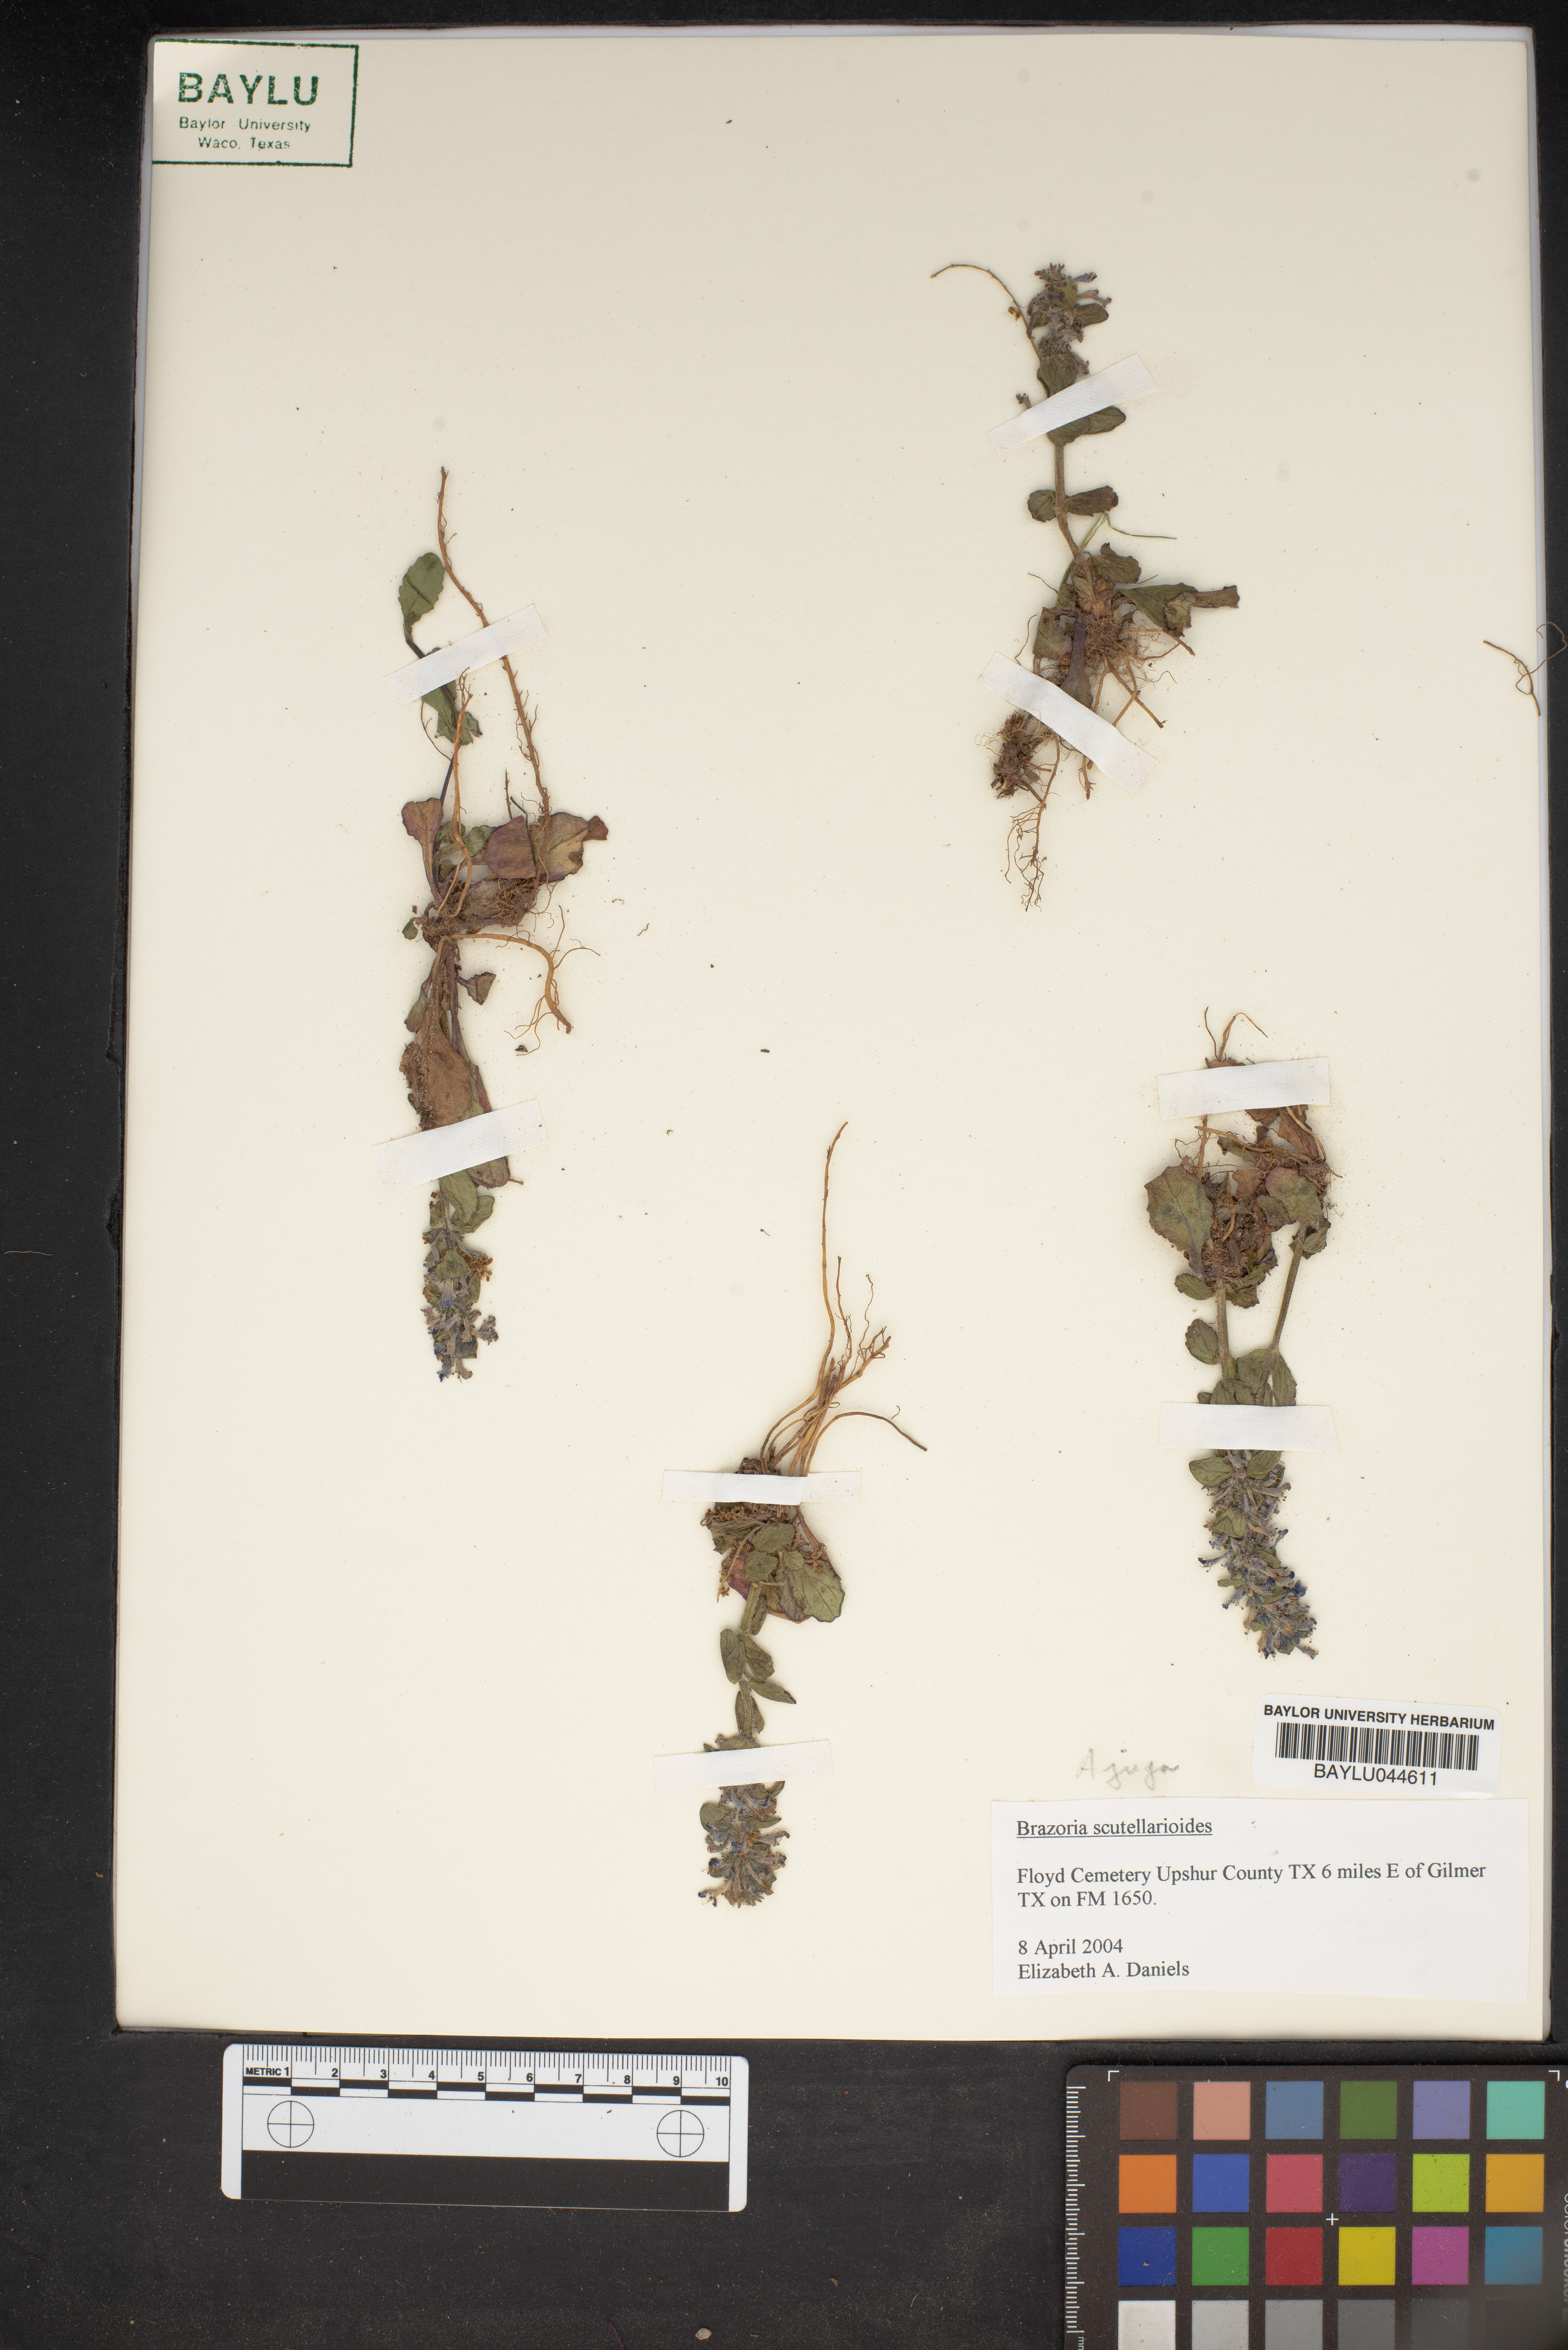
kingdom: Plantae
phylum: Tracheophyta
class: Magnoliopsida
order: Lamiales
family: Lamiaceae
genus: Warnockia
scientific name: Warnockia scutellarioides
